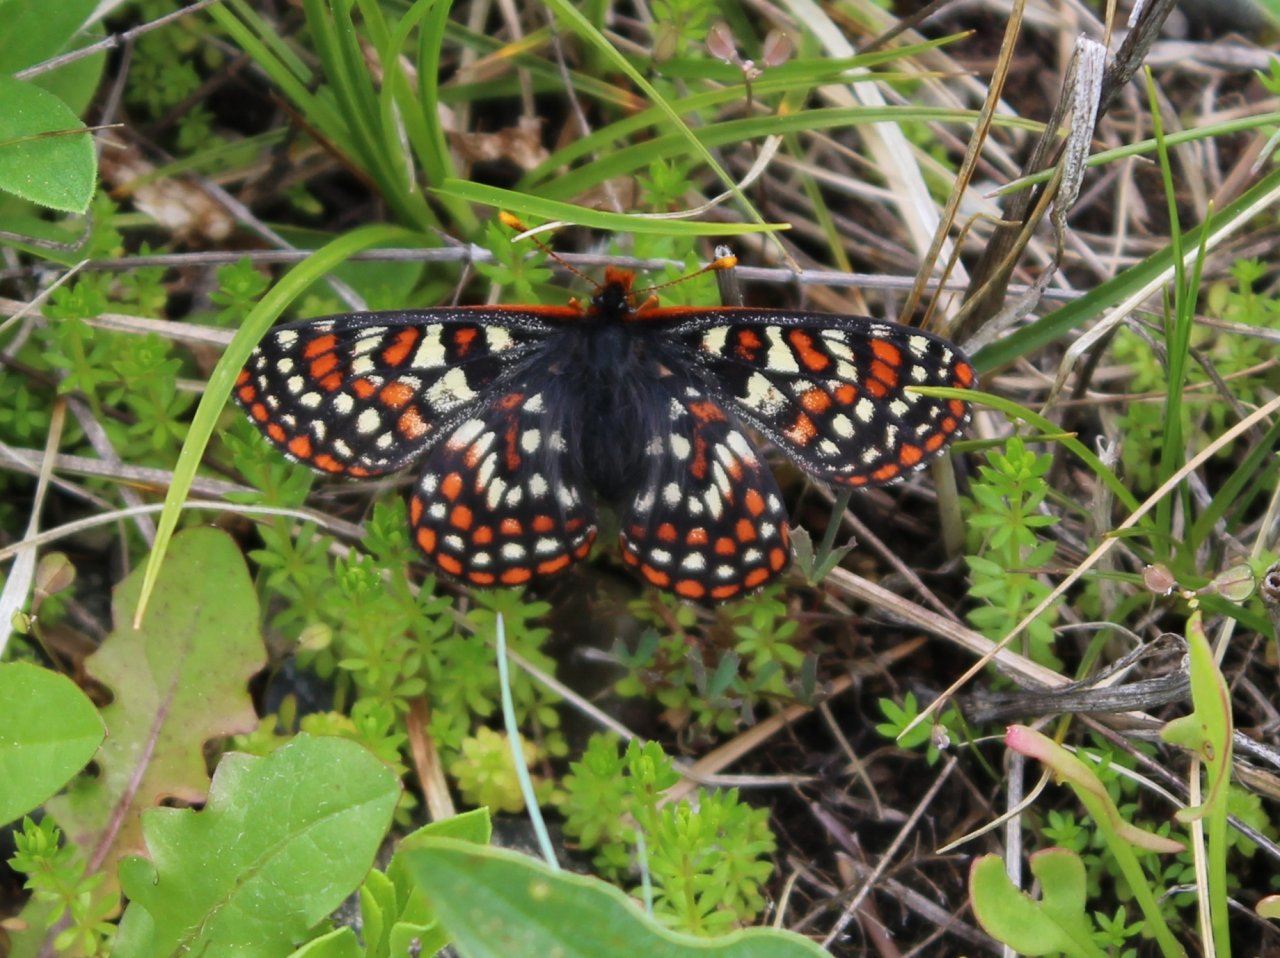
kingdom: Animalia
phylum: Arthropoda
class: Insecta
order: Lepidoptera
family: Nymphalidae
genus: Occidryas
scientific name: Occidryas editha
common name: Edith's Checkerspot
